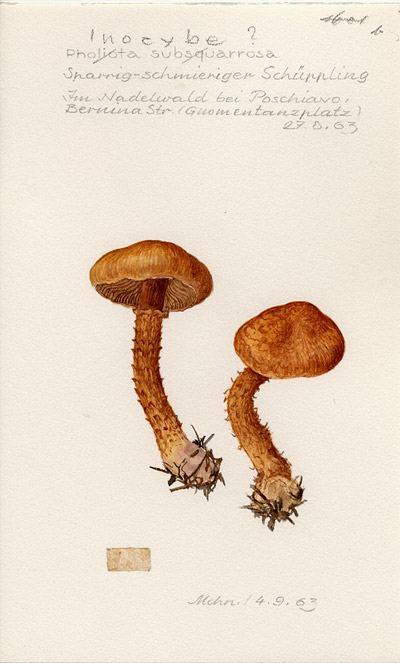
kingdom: Fungi
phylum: Basidiomycota
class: Agaricomycetes
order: Agaricales
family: Inocybaceae
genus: Mallocybe
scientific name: Mallocybe terrigena
